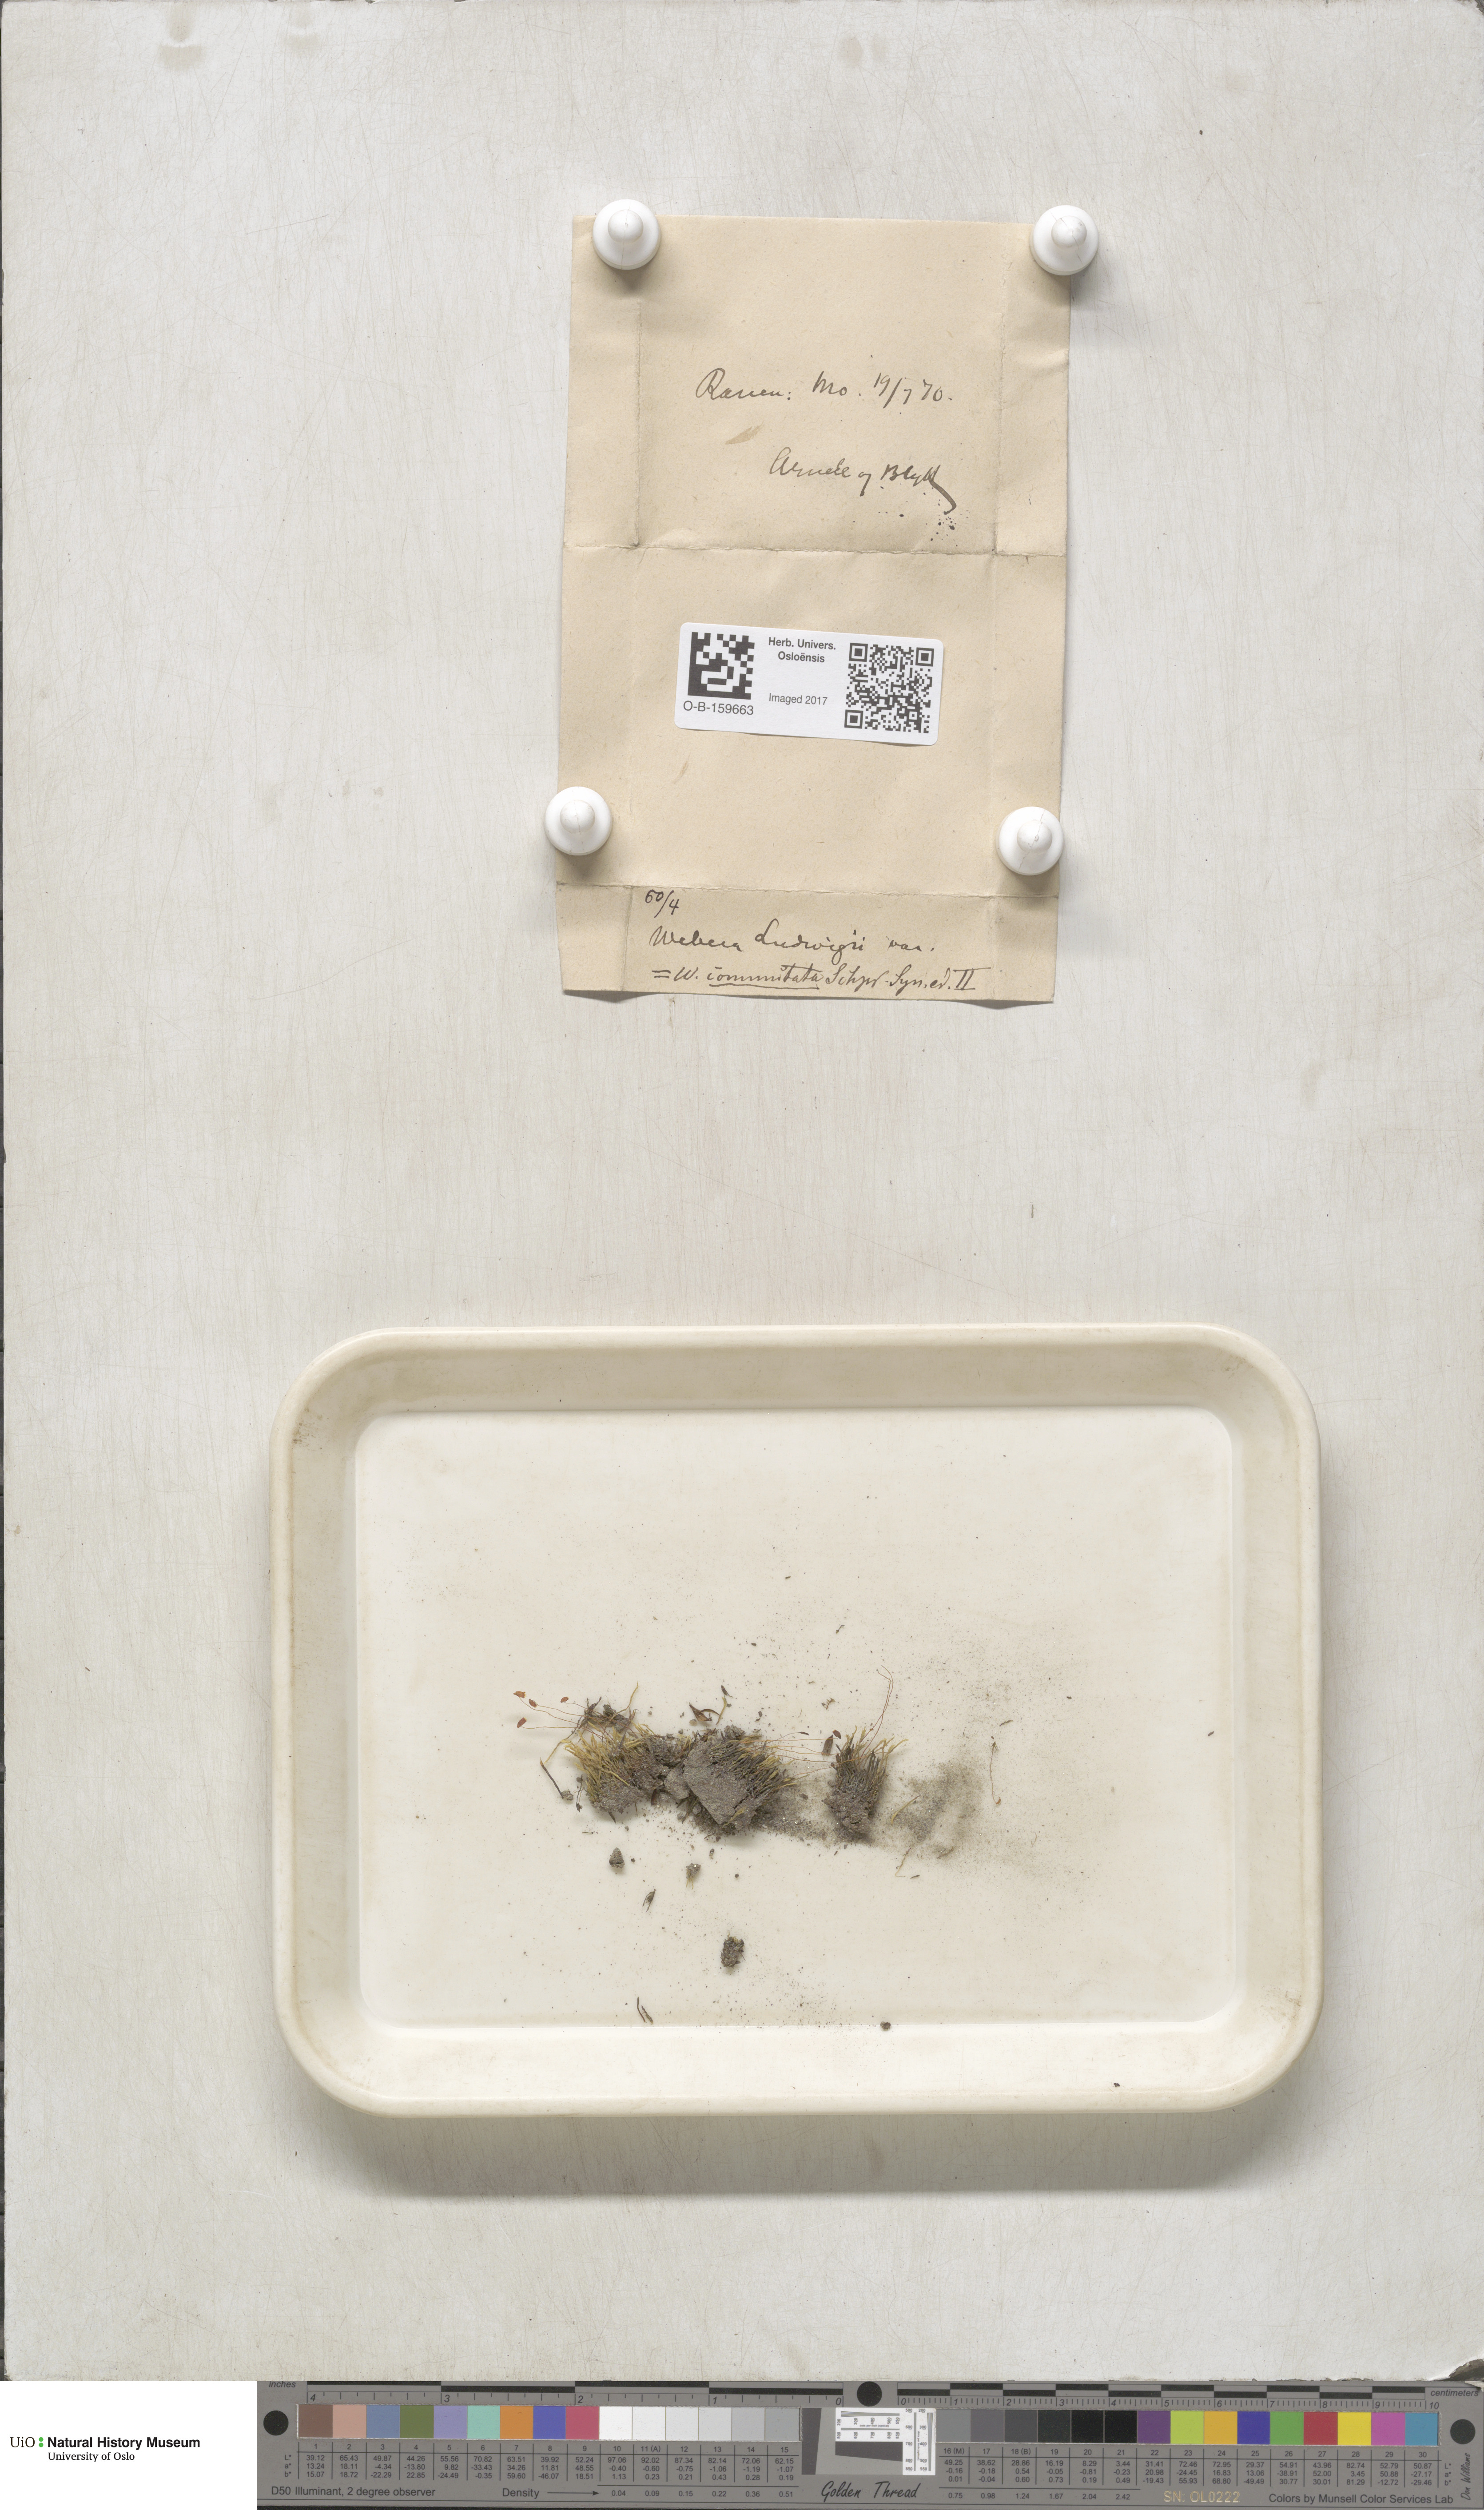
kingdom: Plantae
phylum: Bryophyta
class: Bryopsida
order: Bryales
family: Mniaceae
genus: Pohlia
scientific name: Pohlia drummondii
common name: Drummond's nodding moss
